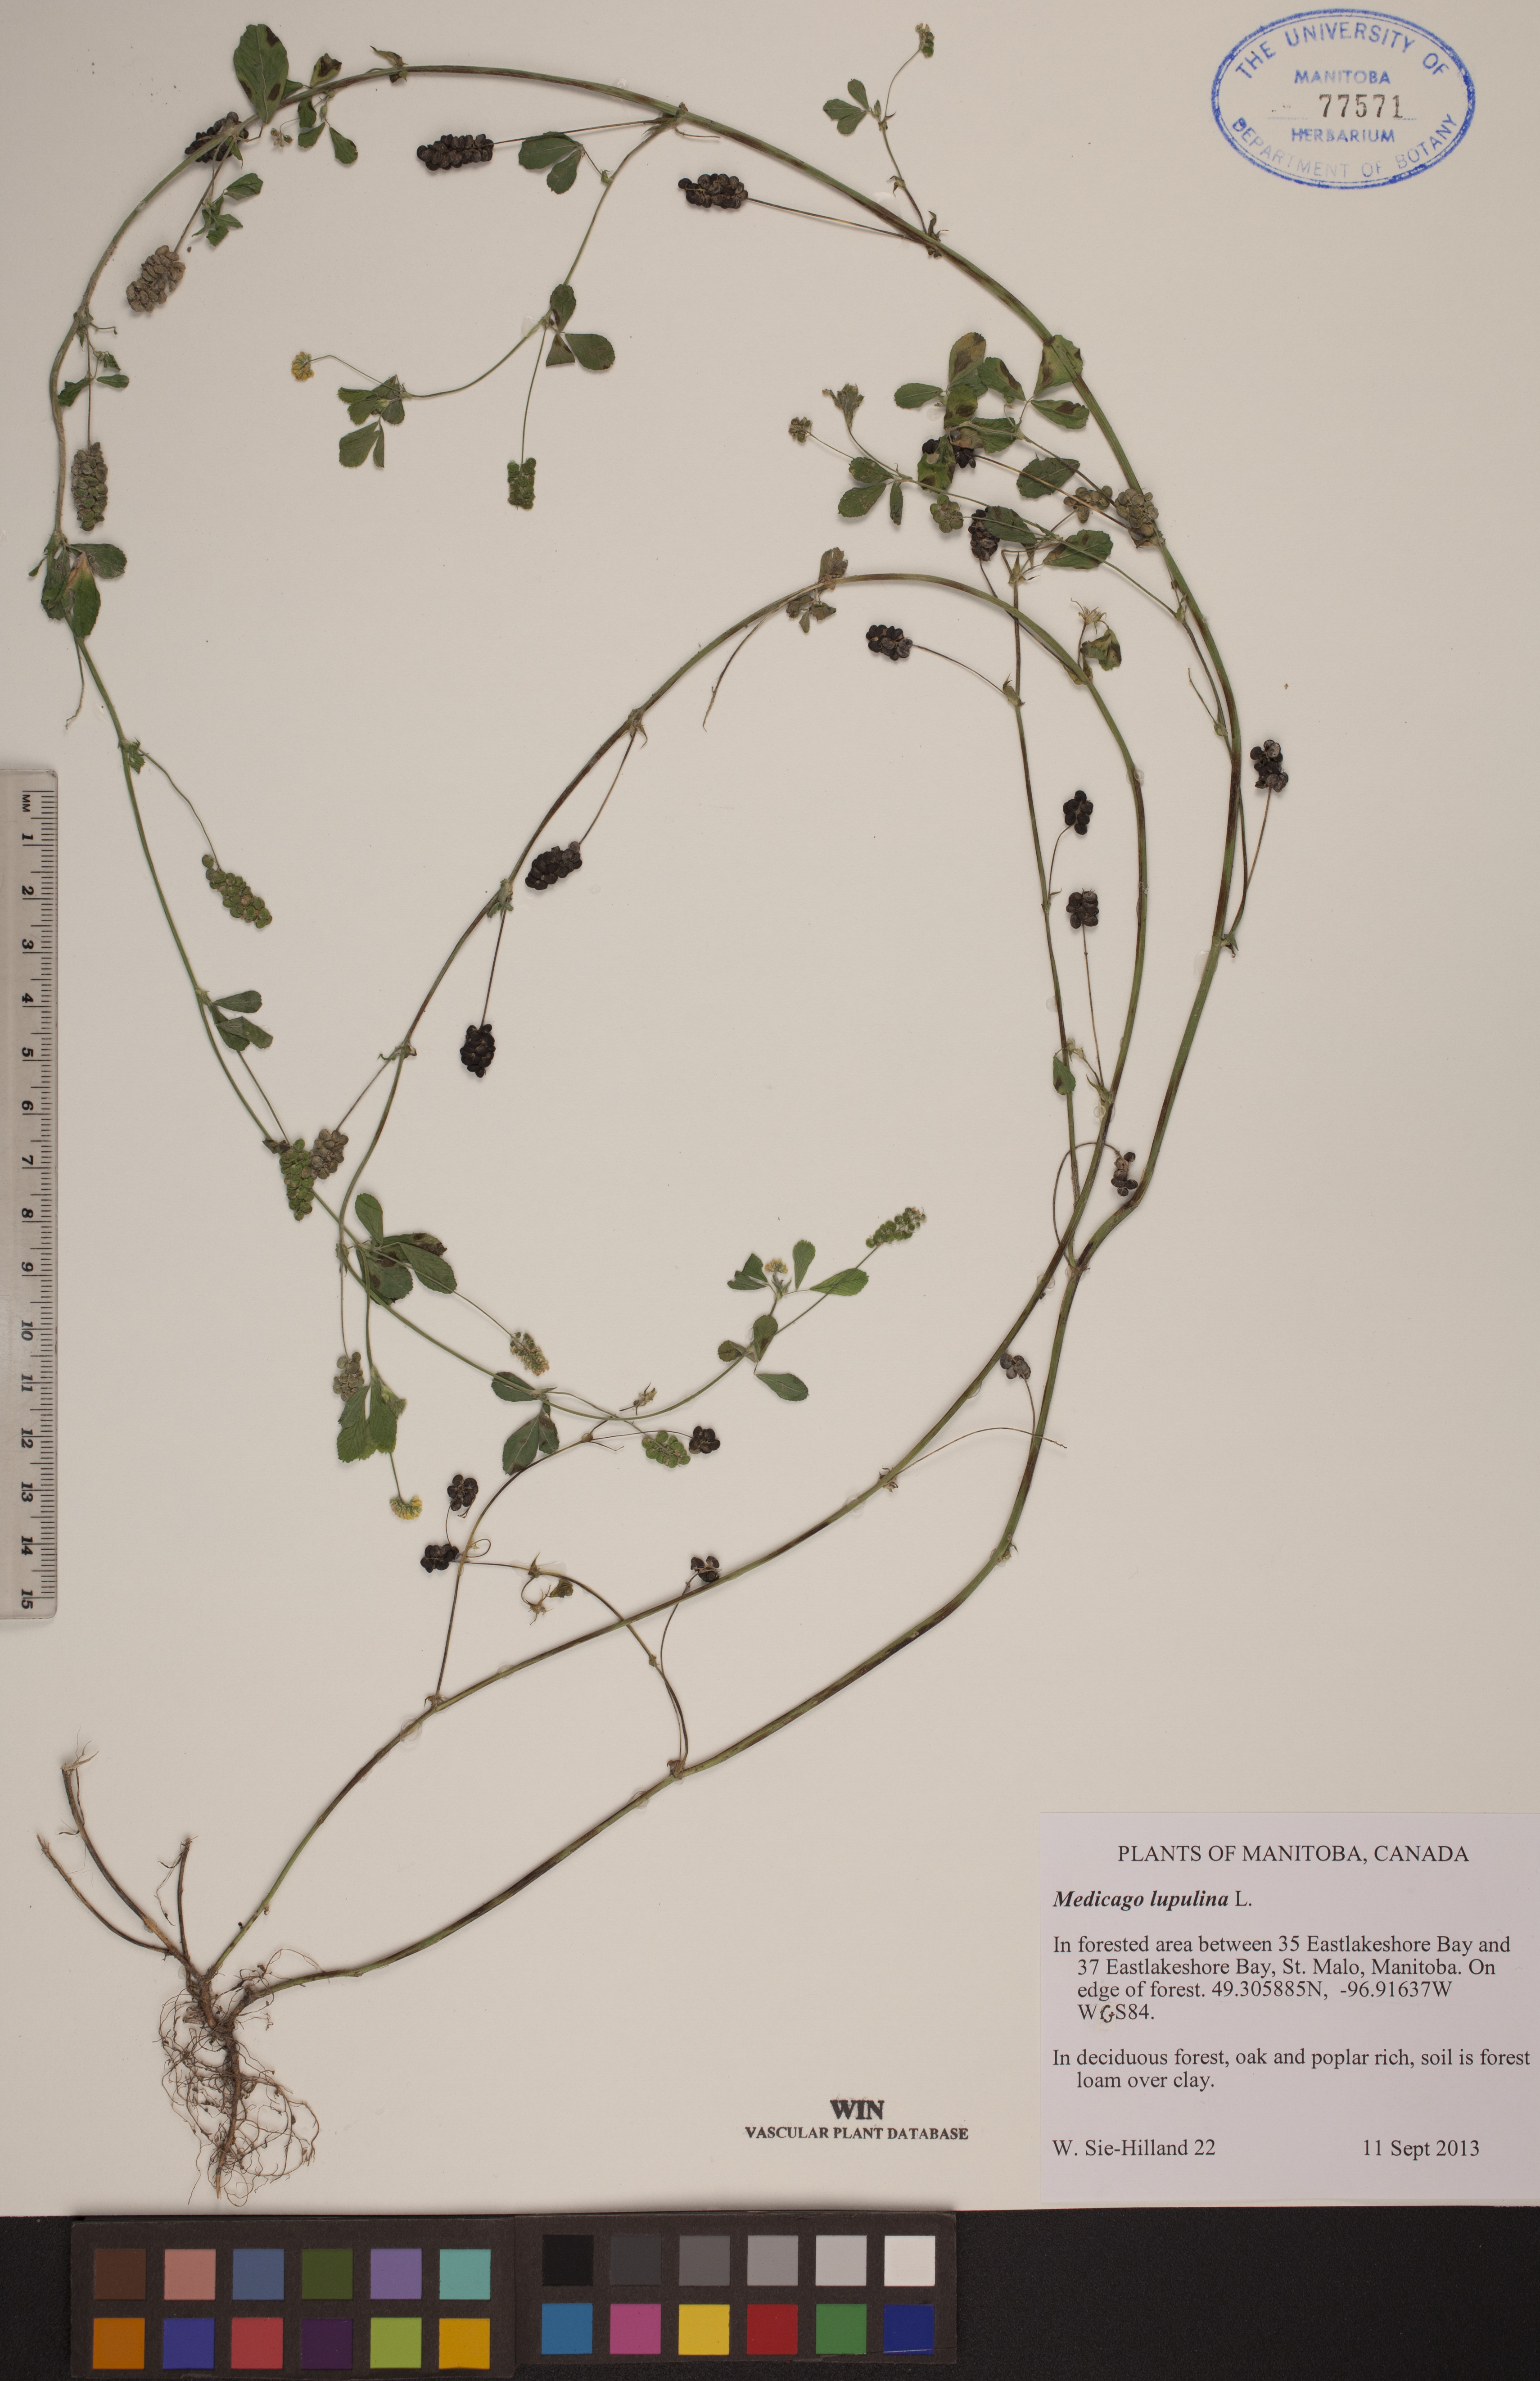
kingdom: Plantae
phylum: Tracheophyta
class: Magnoliopsida
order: Fabales
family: Fabaceae
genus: Medicago
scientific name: Medicago lupulina
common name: Black medick
